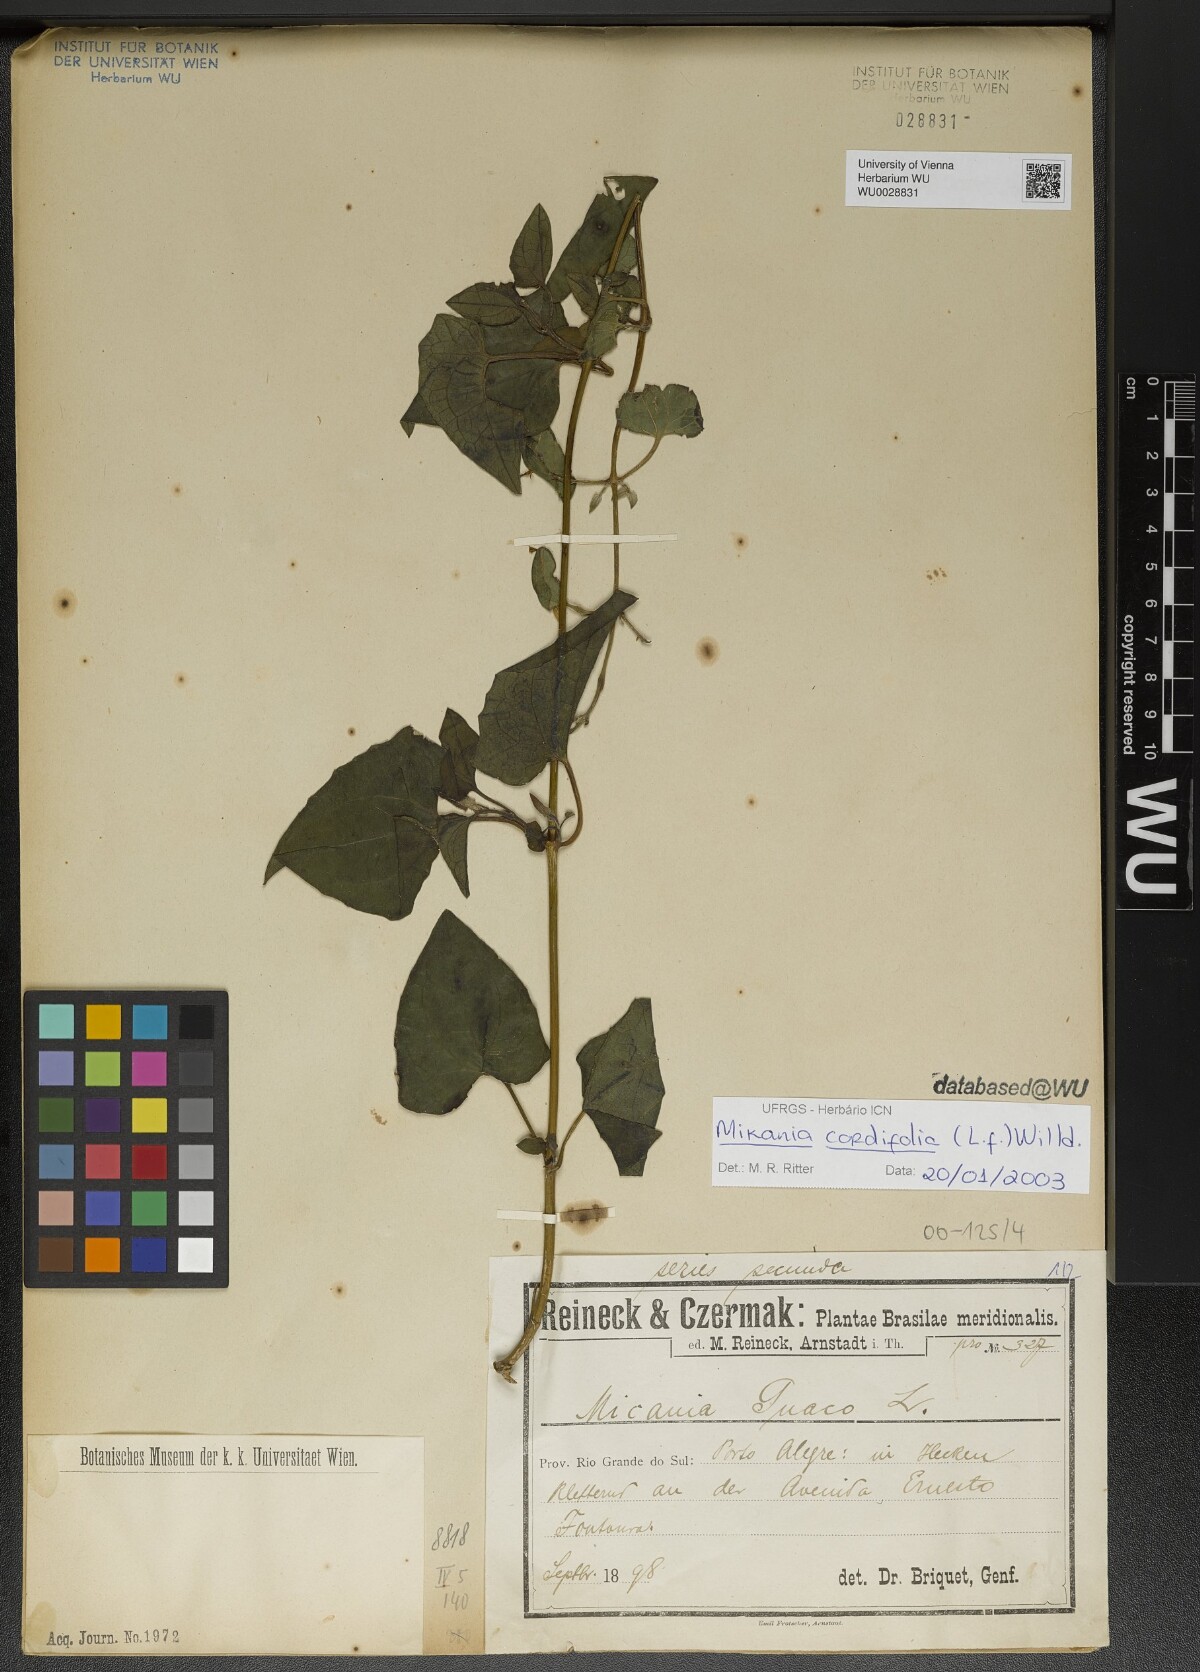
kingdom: Plantae
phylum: Tracheophyta
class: Magnoliopsida
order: Asterales
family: Asteraceae
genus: Mikania
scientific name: Mikania cordifolia
